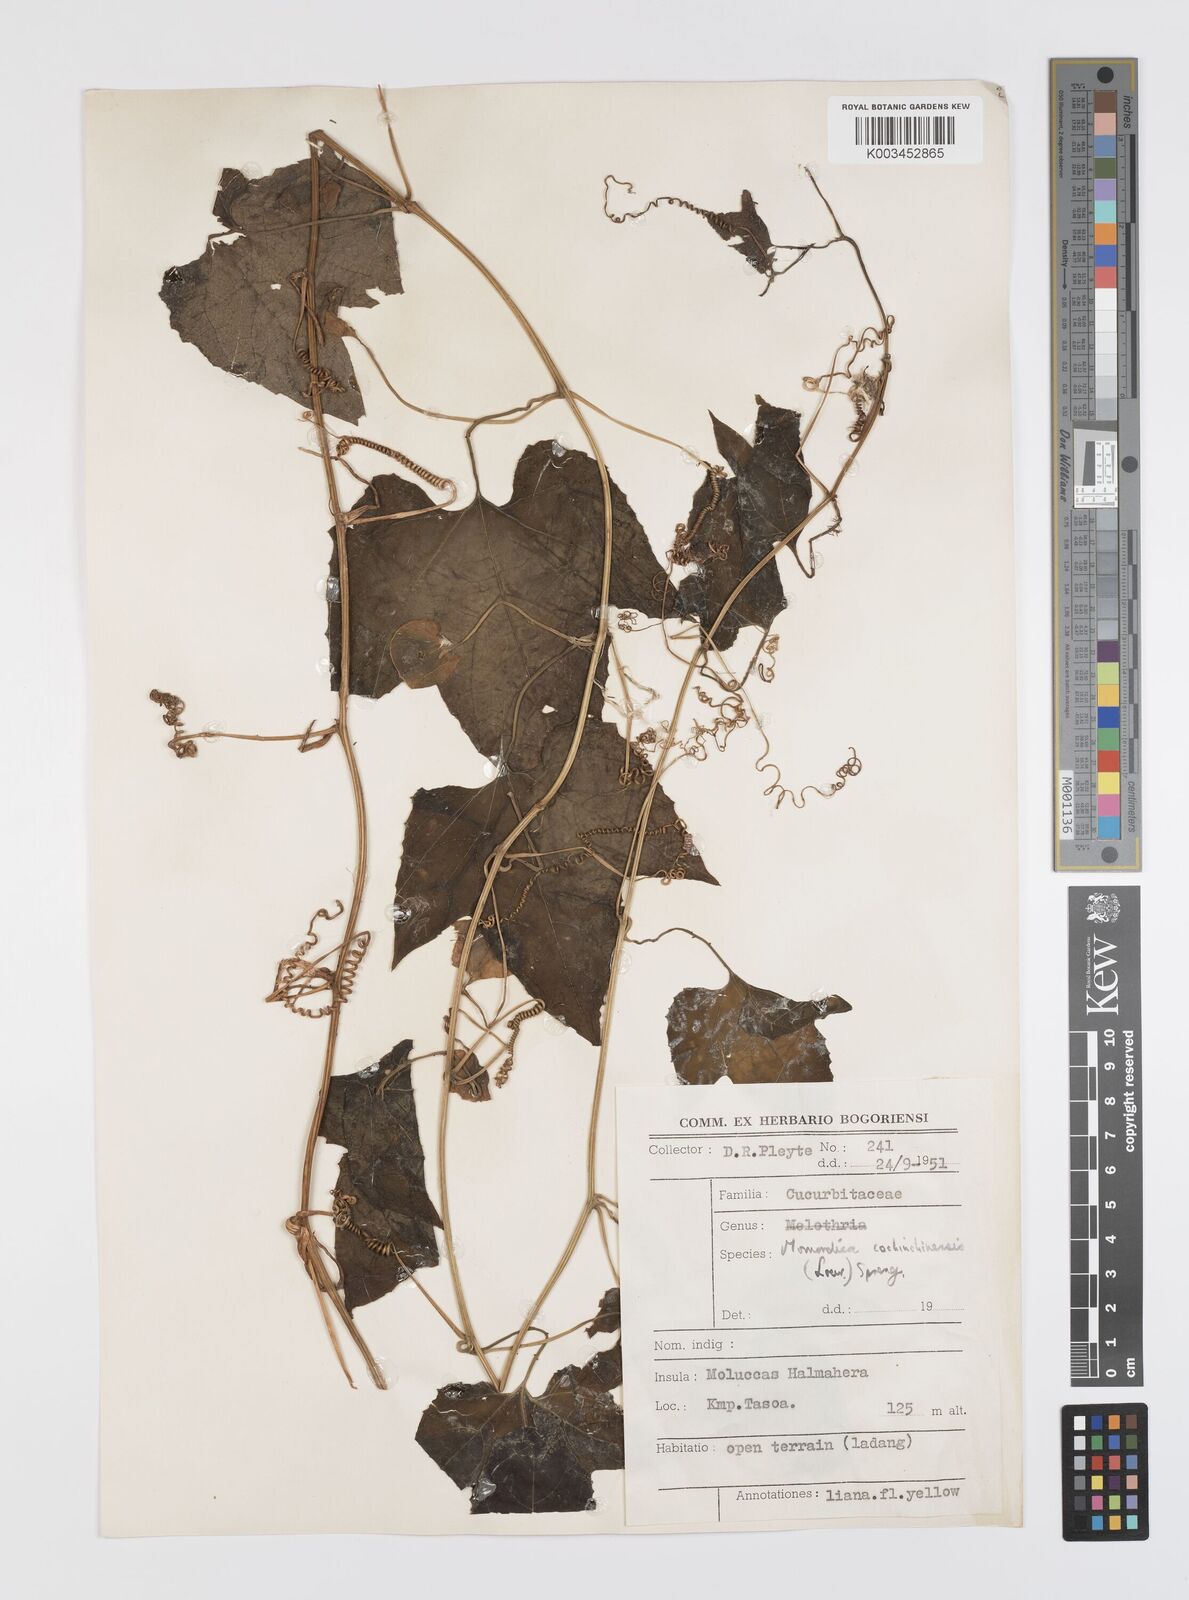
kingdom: Plantae
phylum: Tracheophyta
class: Magnoliopsida
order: Cucurbitales
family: Cucurbitaceae
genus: Momordica
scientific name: Momordica cochinchinensis
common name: Chinese bitter-cucumber
